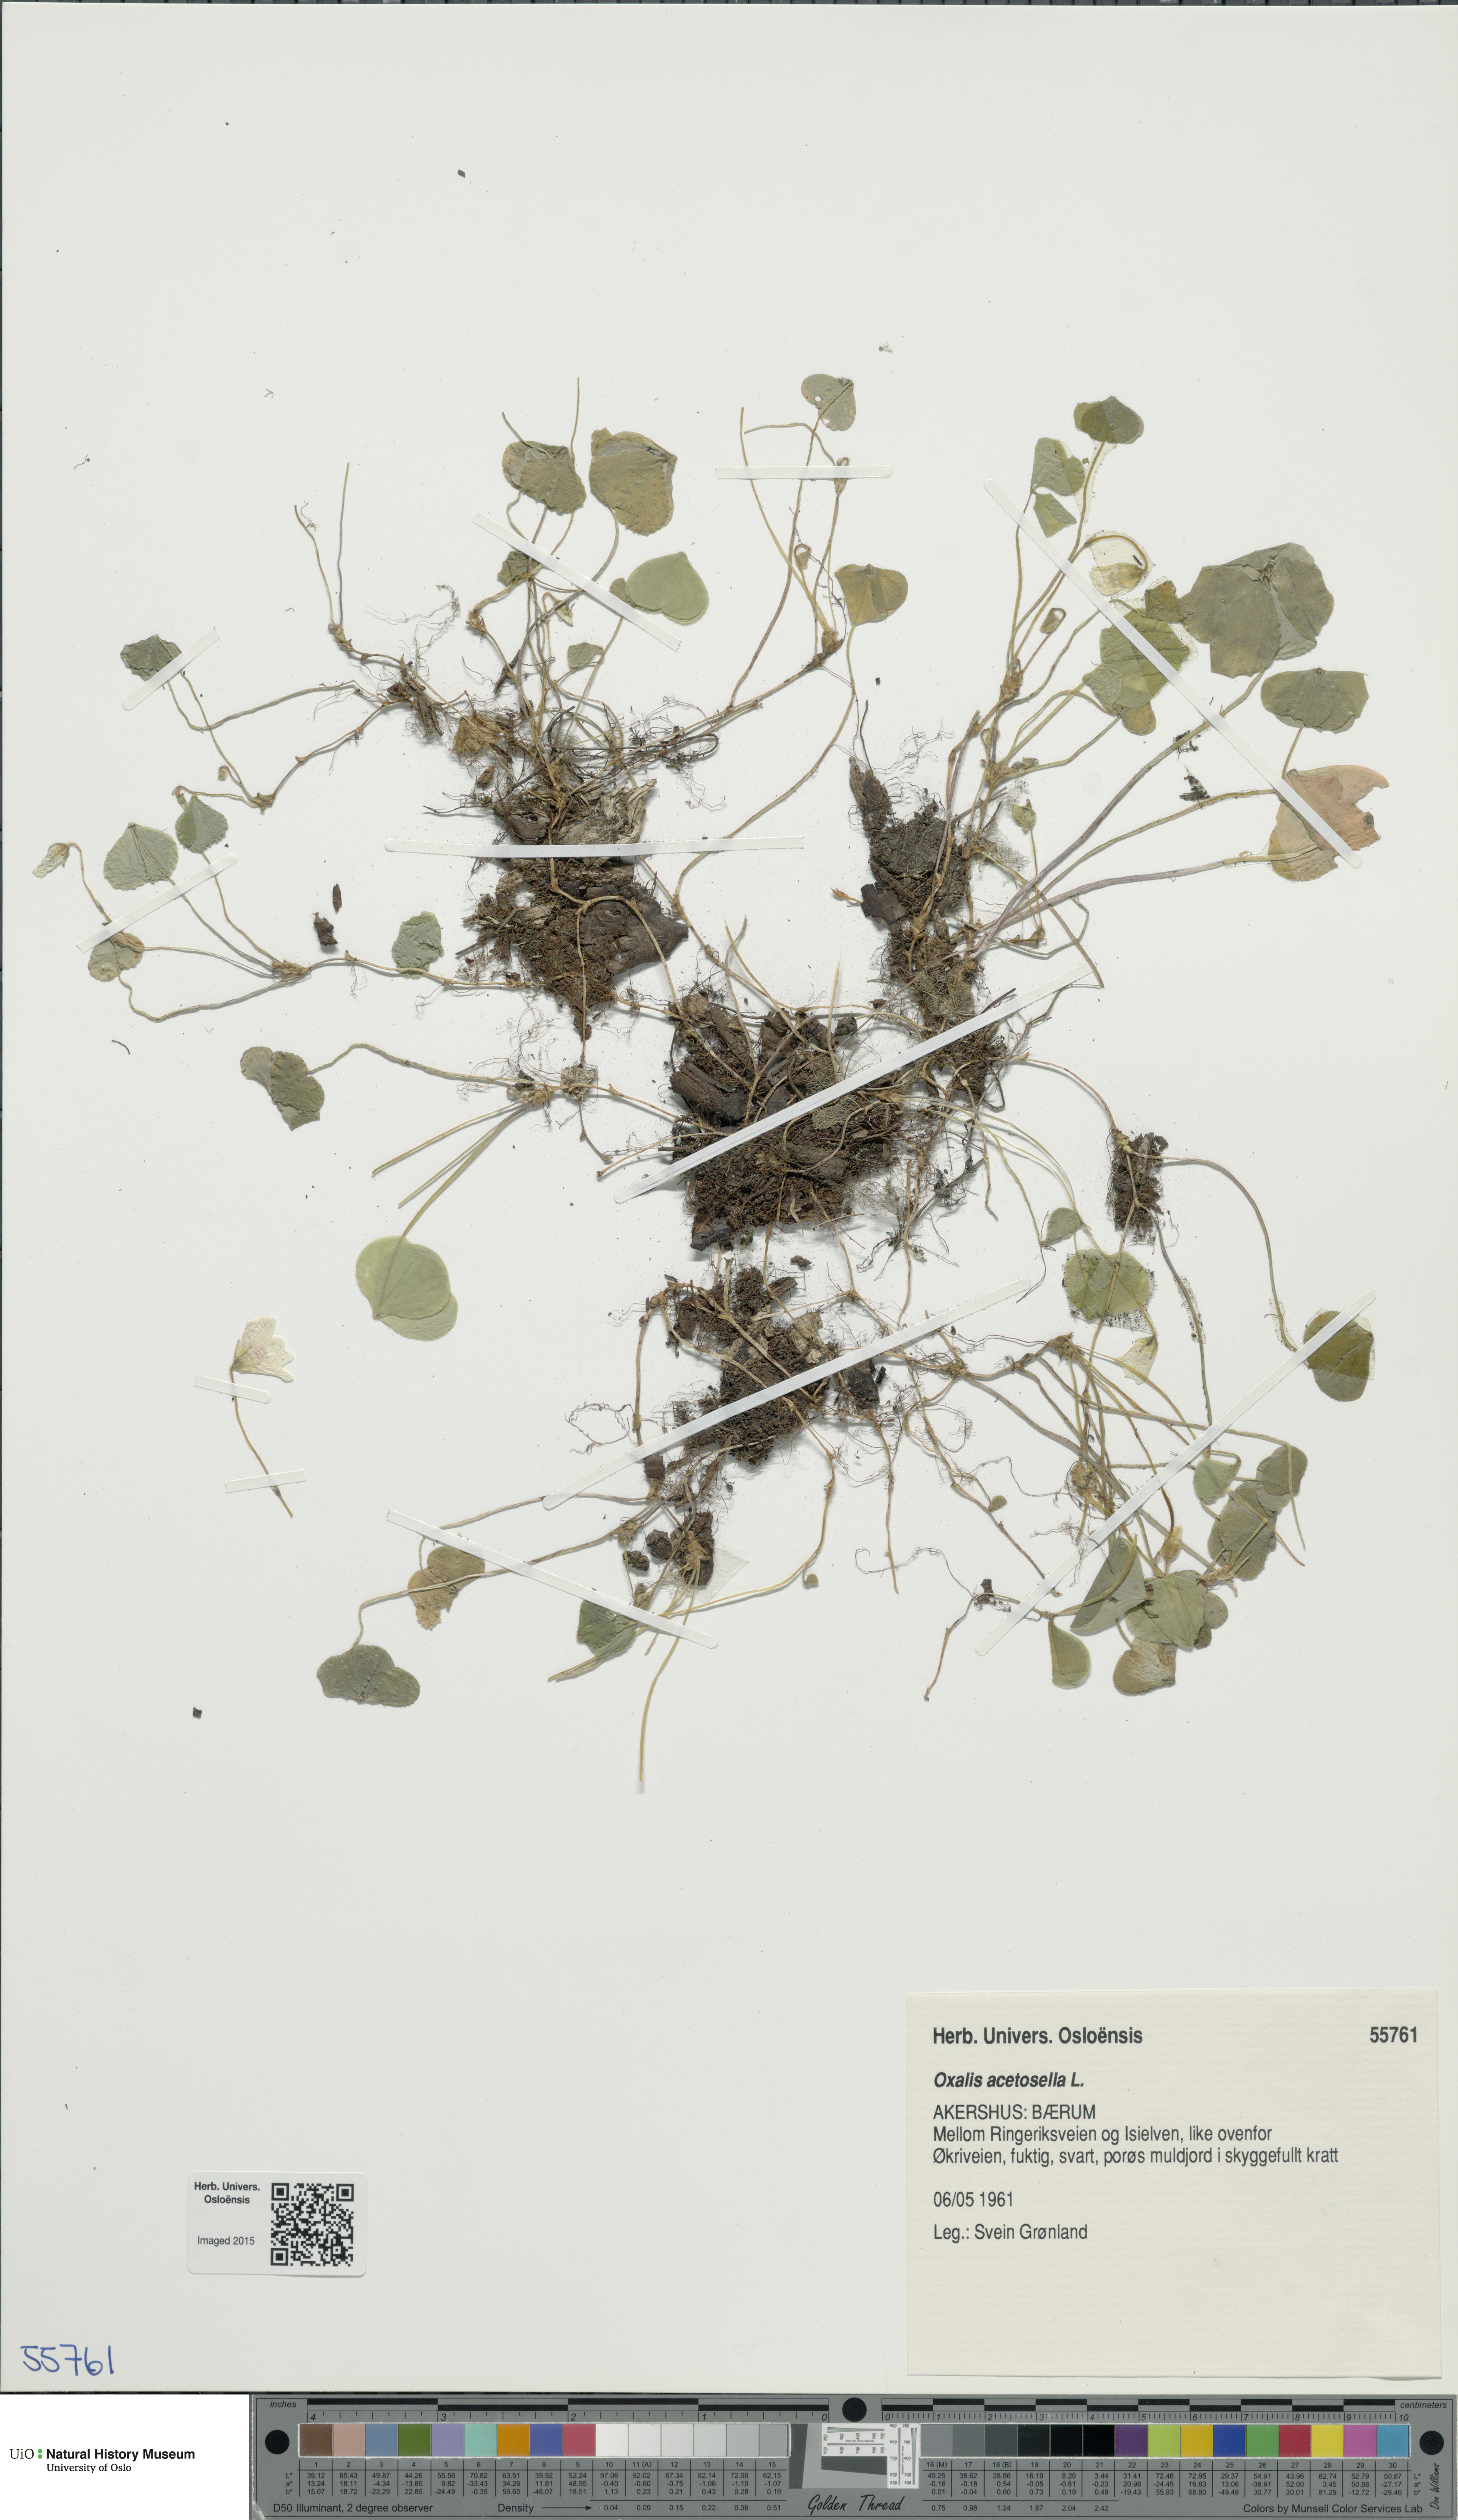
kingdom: Plantae
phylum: Tracheophyta
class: Magnoliopsida
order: Oxalidales
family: Oxalidaceae
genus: Oxalis
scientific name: Oxalis acetosella
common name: Wood-sorrel
